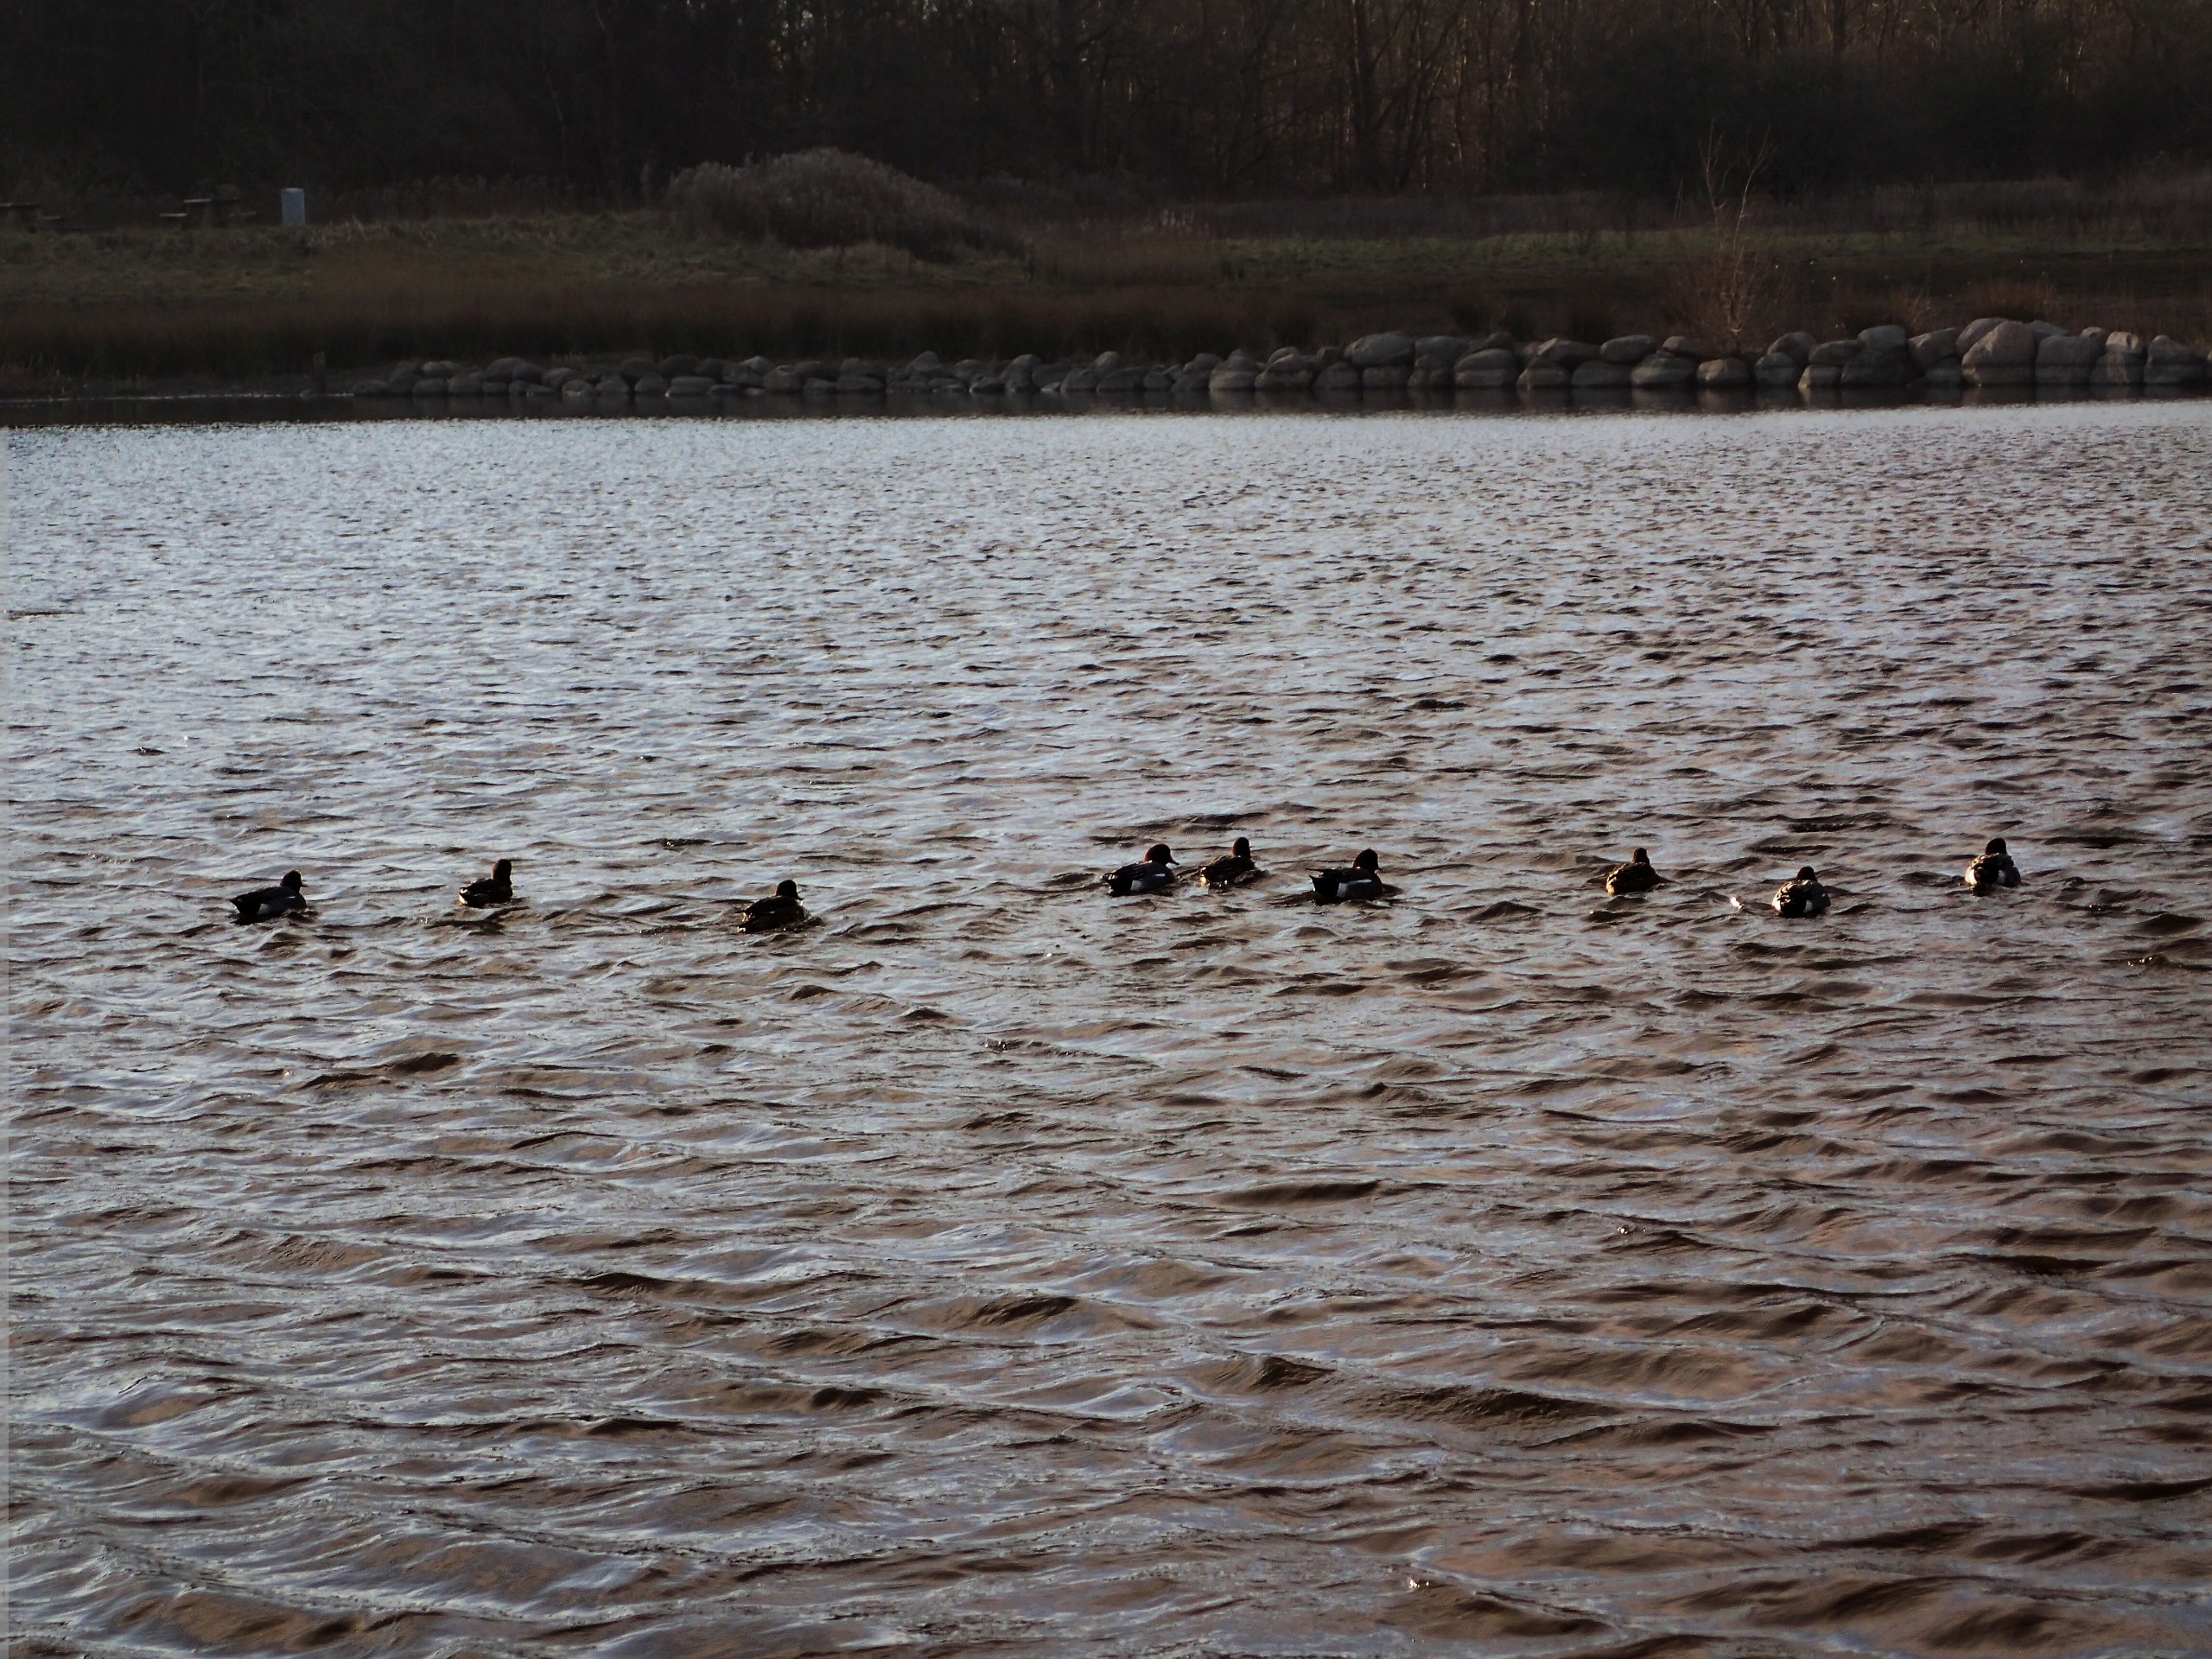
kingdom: Animalia
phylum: Chordata
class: Aves
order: Anseriformes
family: Anatidae
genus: Mareca
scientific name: Mareca penelope
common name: Pibeand
